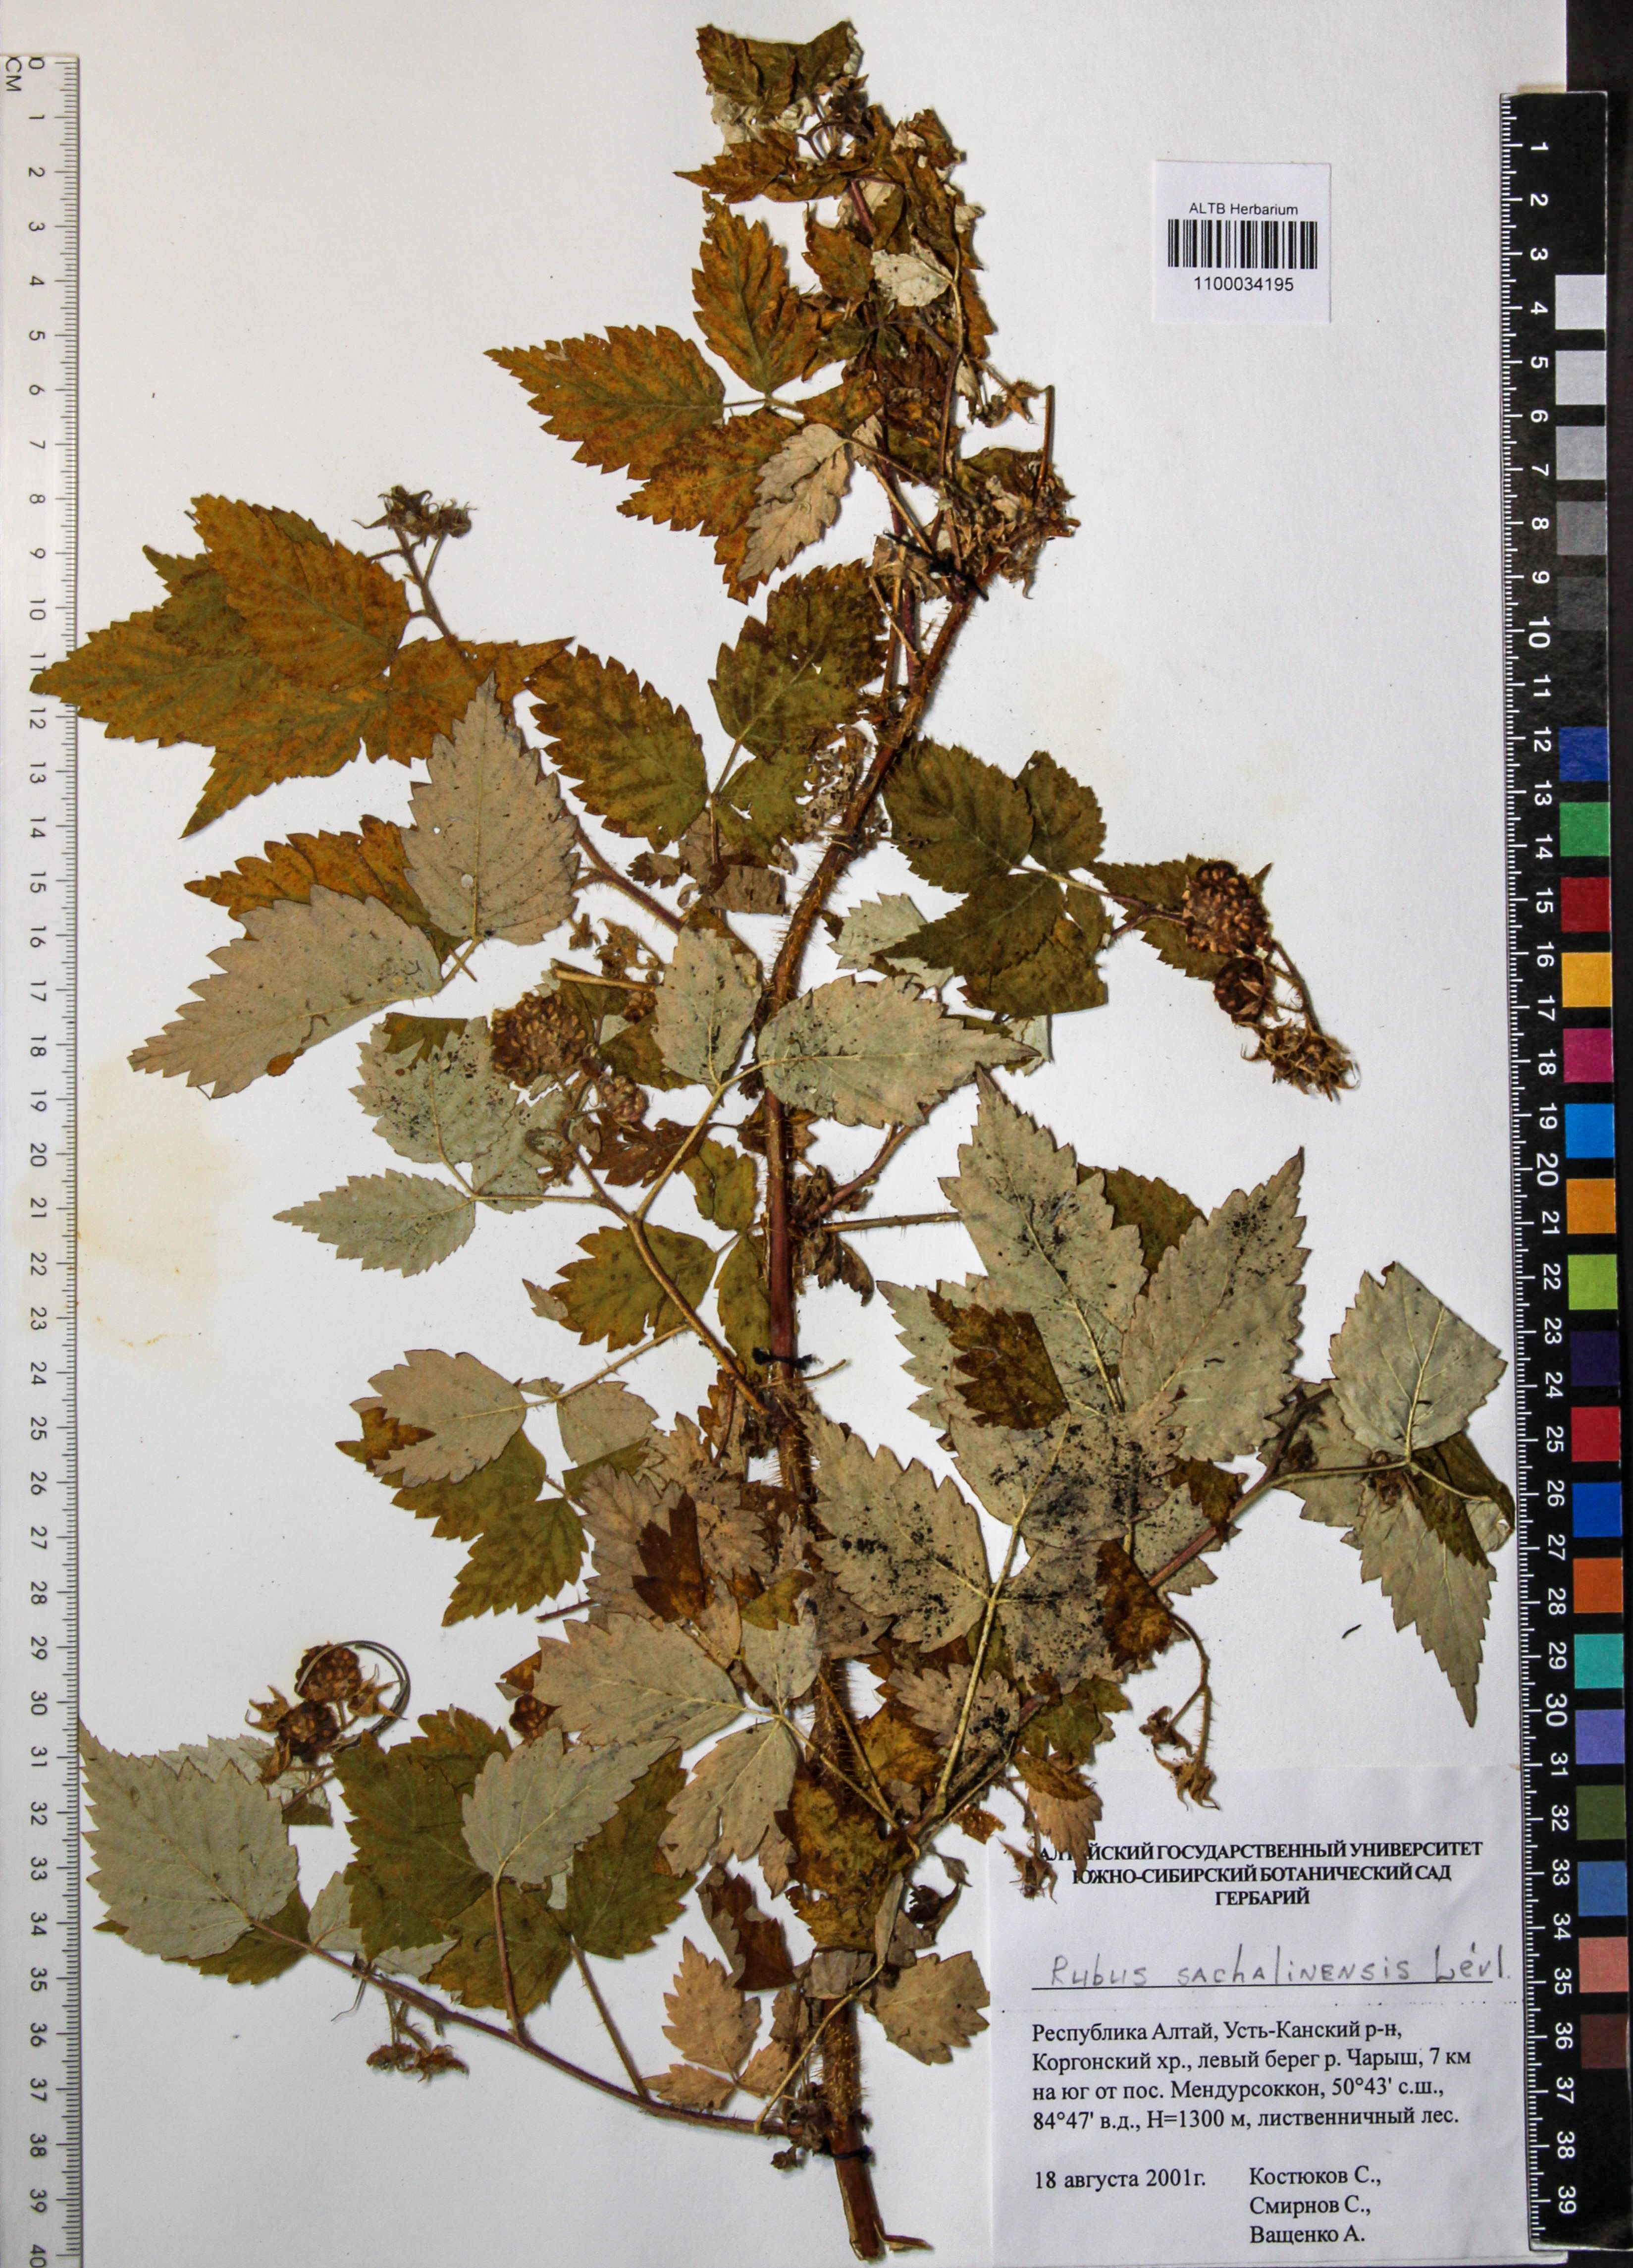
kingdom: Plantae
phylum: Tracheophyta
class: Magnoliopsida
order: Rosales
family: Rosaceae
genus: Rubus
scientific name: Rubus sachalinensis
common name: Red raspberry
